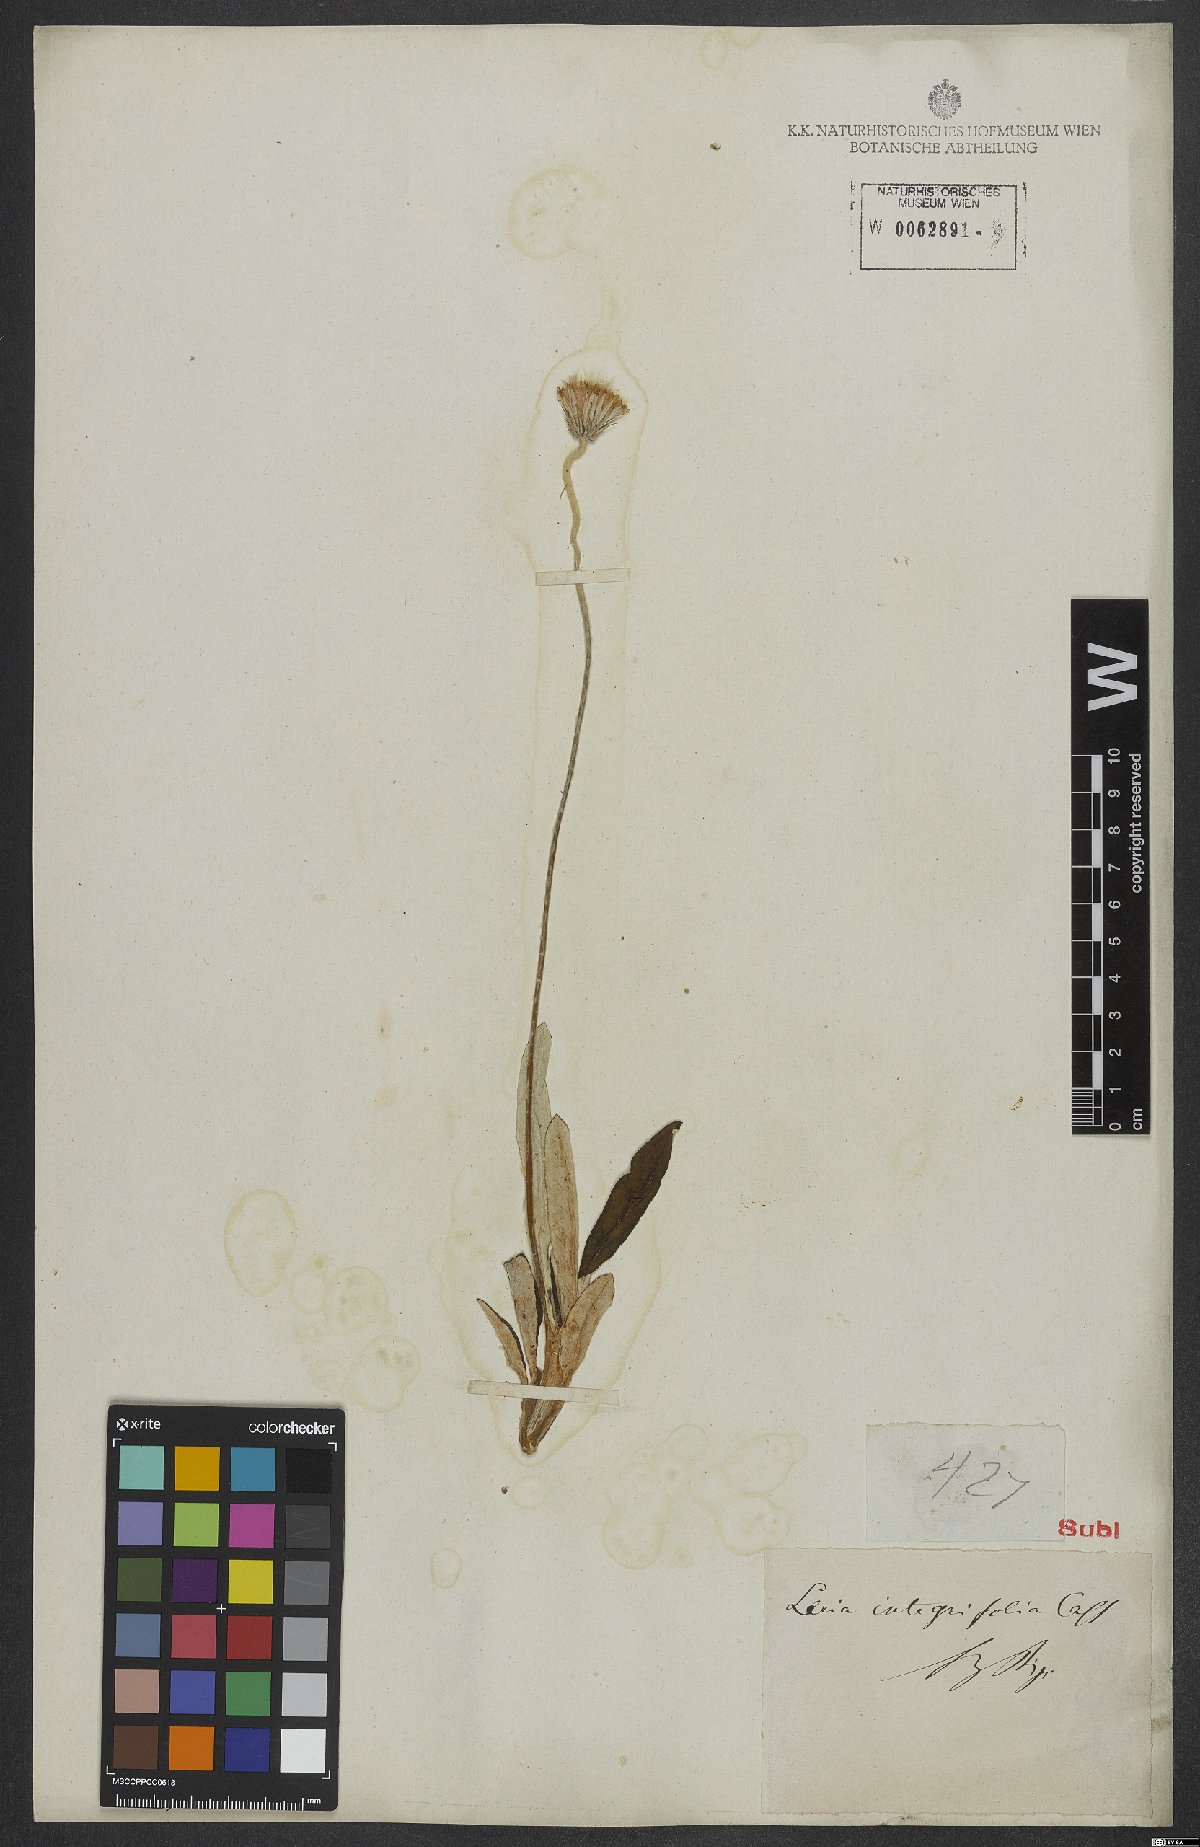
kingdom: Plantae
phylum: Tracheophyta
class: Magnoliopsida
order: Asterales
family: Asteraceae
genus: Chaptalia
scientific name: Chaptalia integerrima
